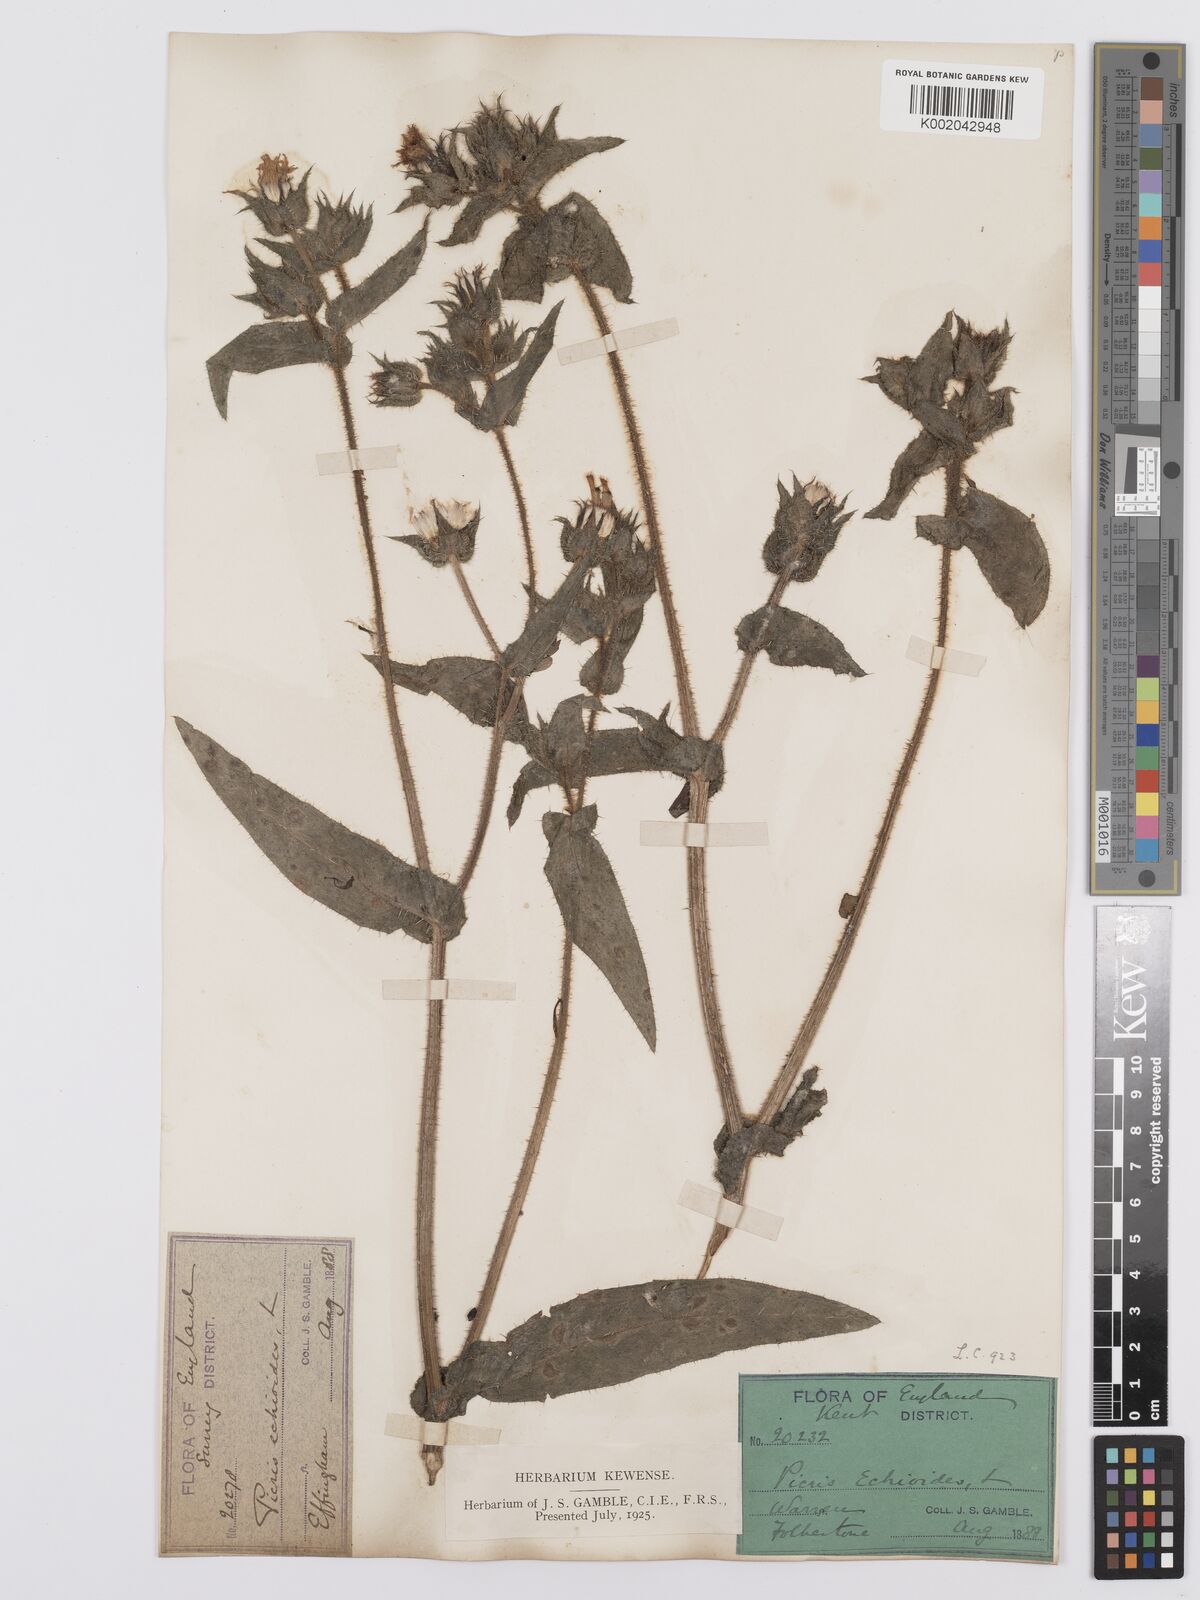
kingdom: Plantae
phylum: Tracheophyta
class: Magnoliopsida
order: Asterales
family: Asteraceae
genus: Helminthotheca
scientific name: Helminthotheca echioides
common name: Ox-tongue
